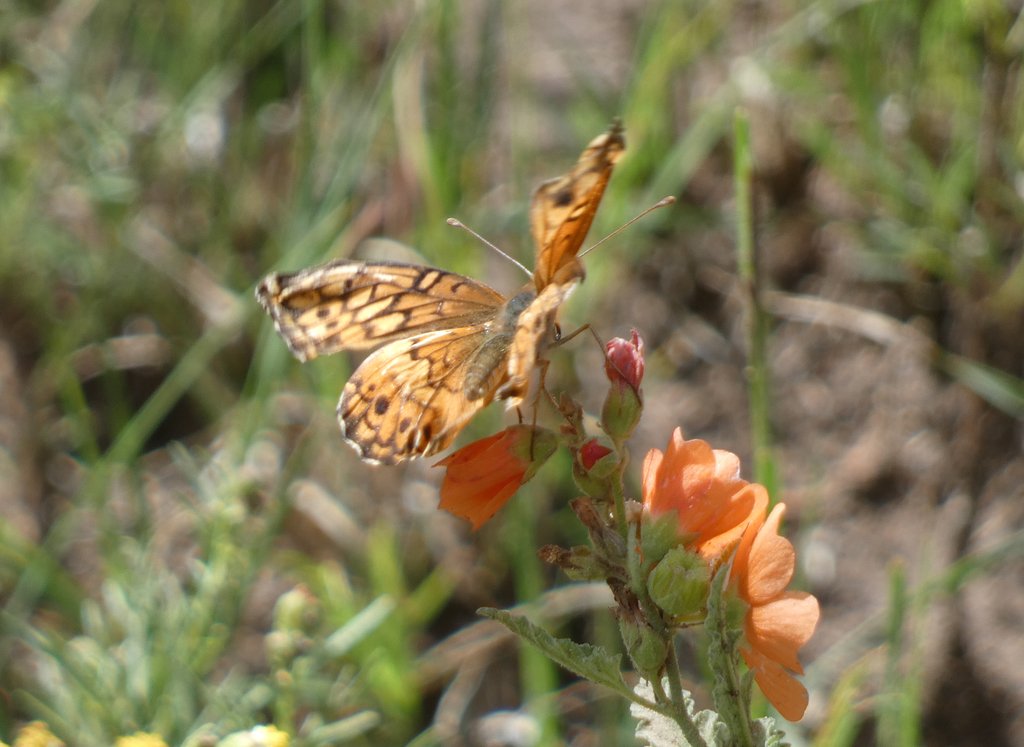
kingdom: Animalia
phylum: Arthropoda
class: Insecta
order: Lepidoptera
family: Nymphalidae
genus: Euptoieta
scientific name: Euptoieta claudia
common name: Variegated Fritillary
